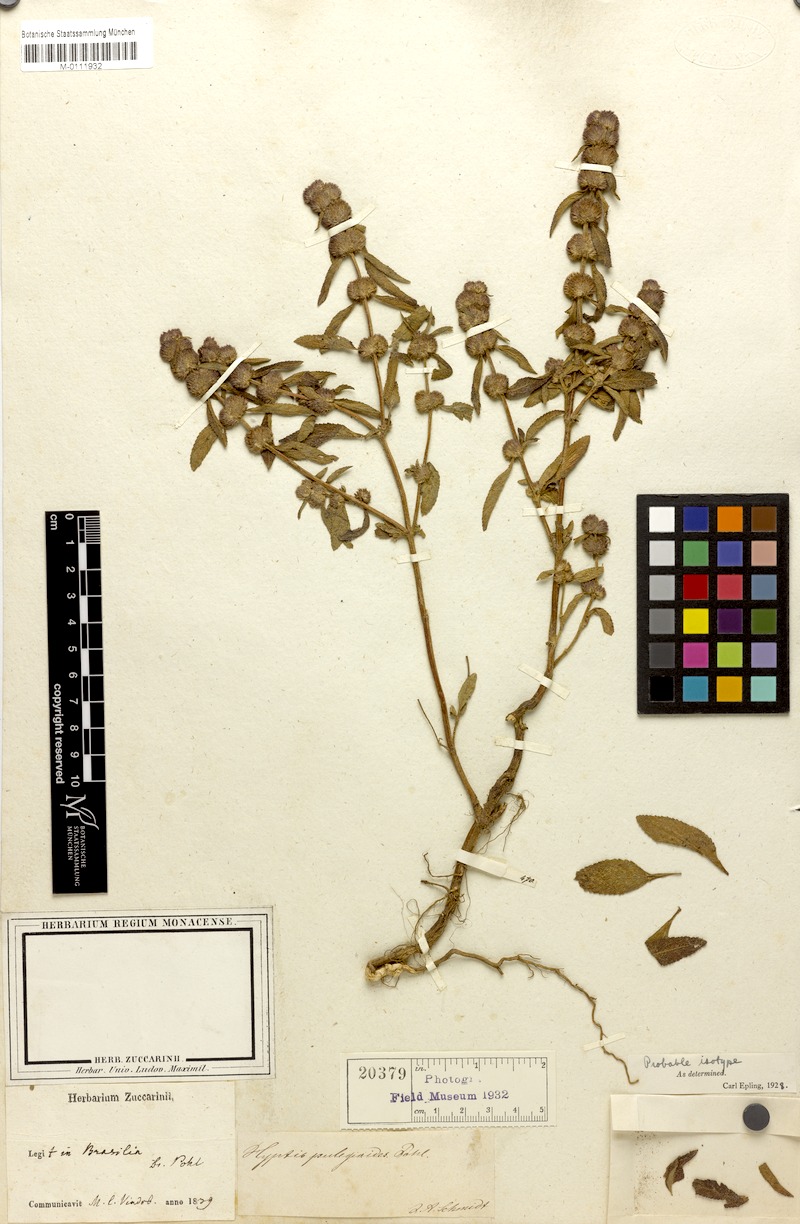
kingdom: Plantae
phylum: Tracheophyta
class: Magnoliopsida
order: Lamiales
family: Lamiaceae
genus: Hyptis
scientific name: Hyptis pulegioides
